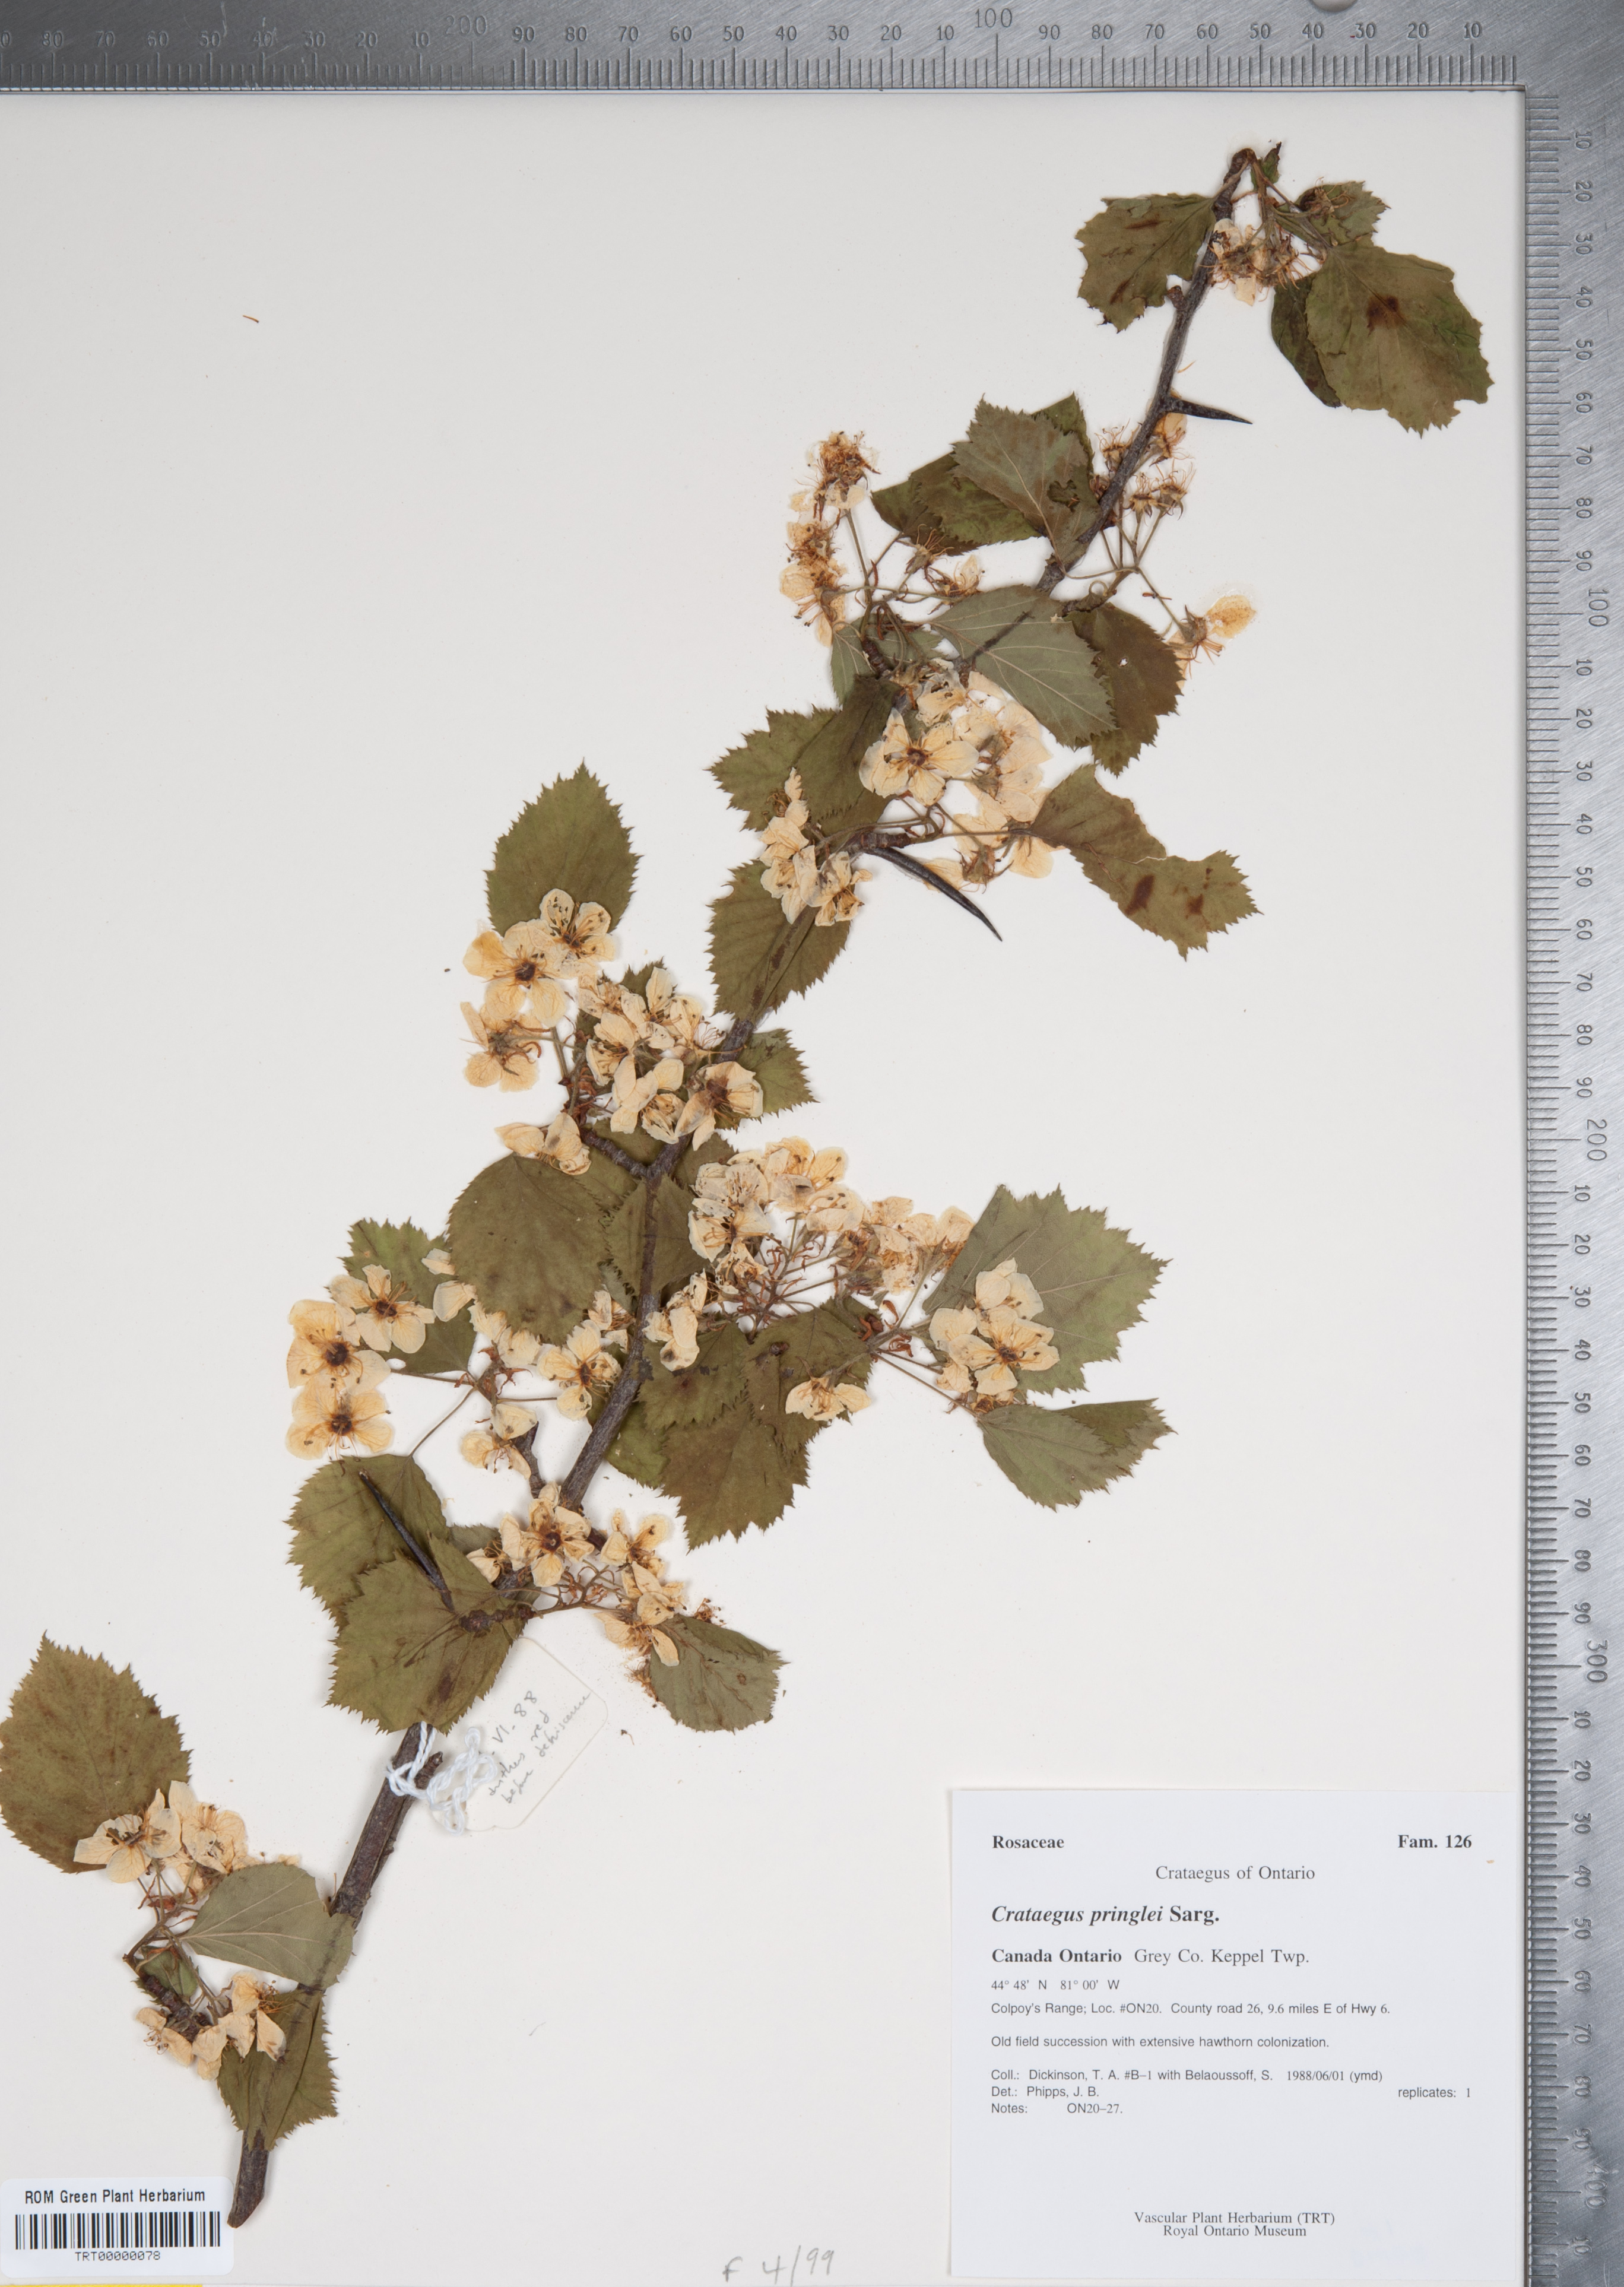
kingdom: Plantae
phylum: Tracheophyta
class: Magnoliopsida
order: Rosales
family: Rosaceae
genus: Crataegus
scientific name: Crataegus coccinea
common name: Scarlet hawthorn
